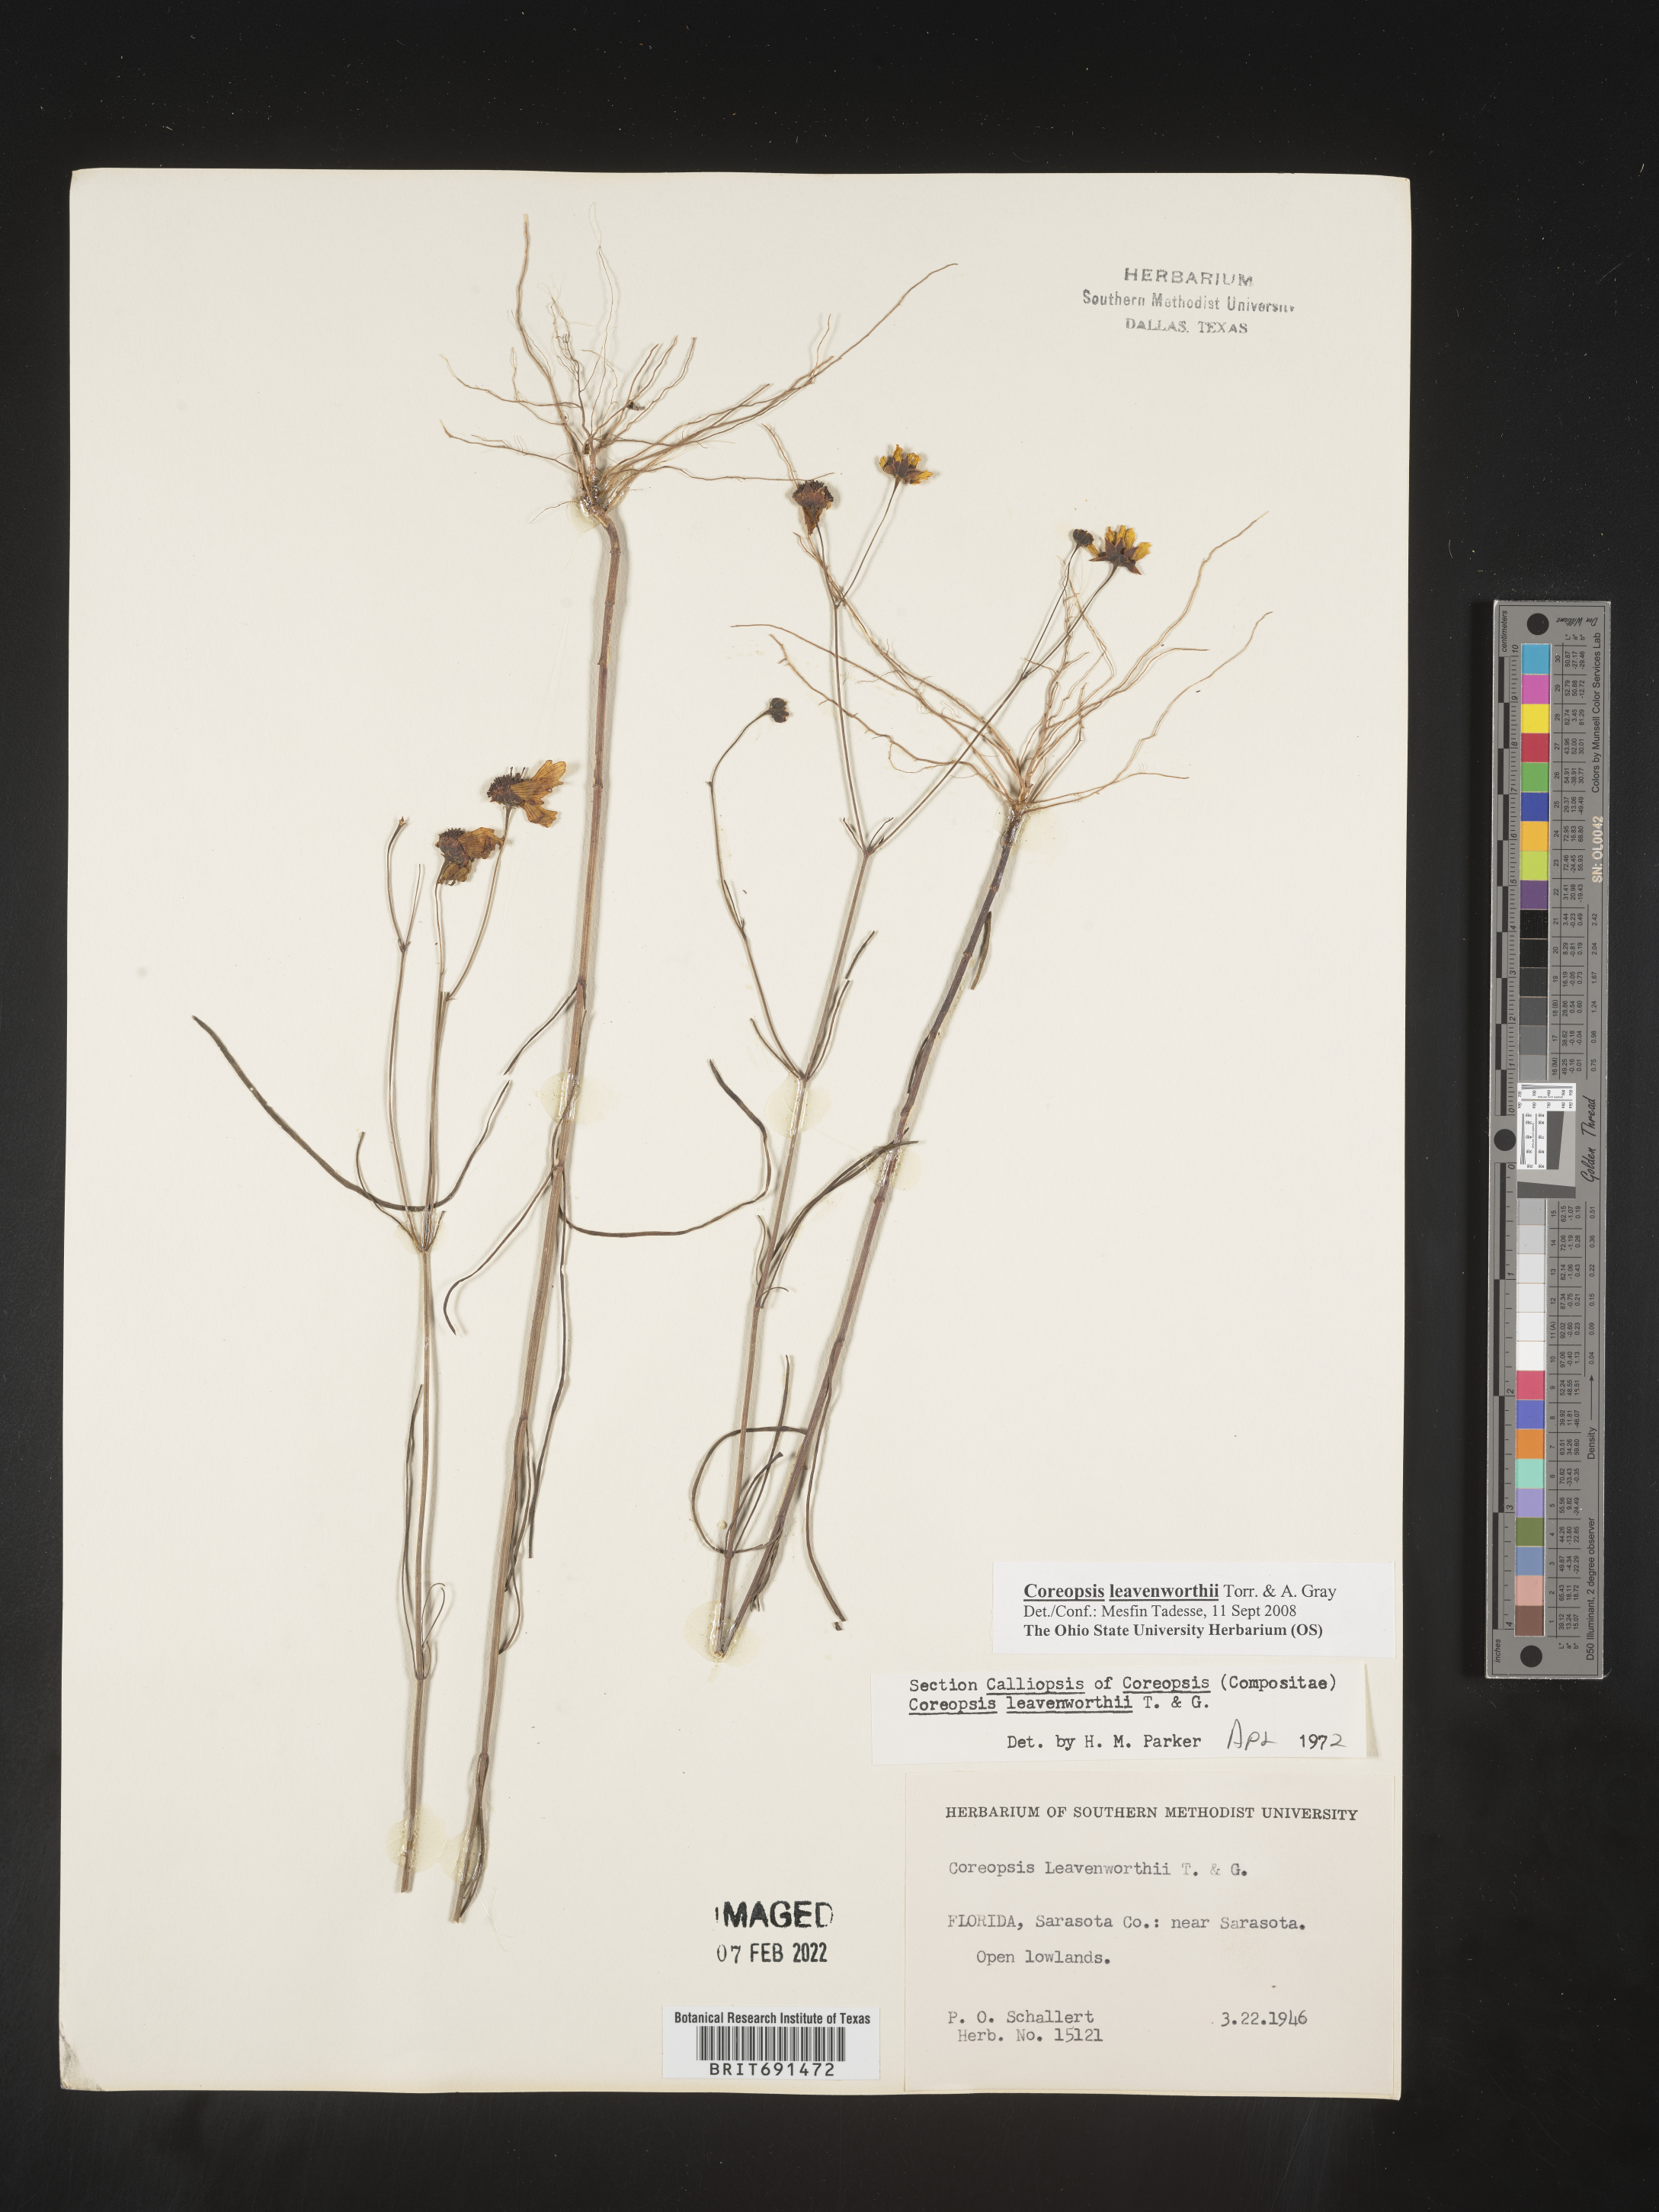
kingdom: Plantae
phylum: Tracheophyta
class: Magnoliopsida
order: Asterales
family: Asteraceae
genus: Coreopsis
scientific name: Coreopsis leavenworthii
